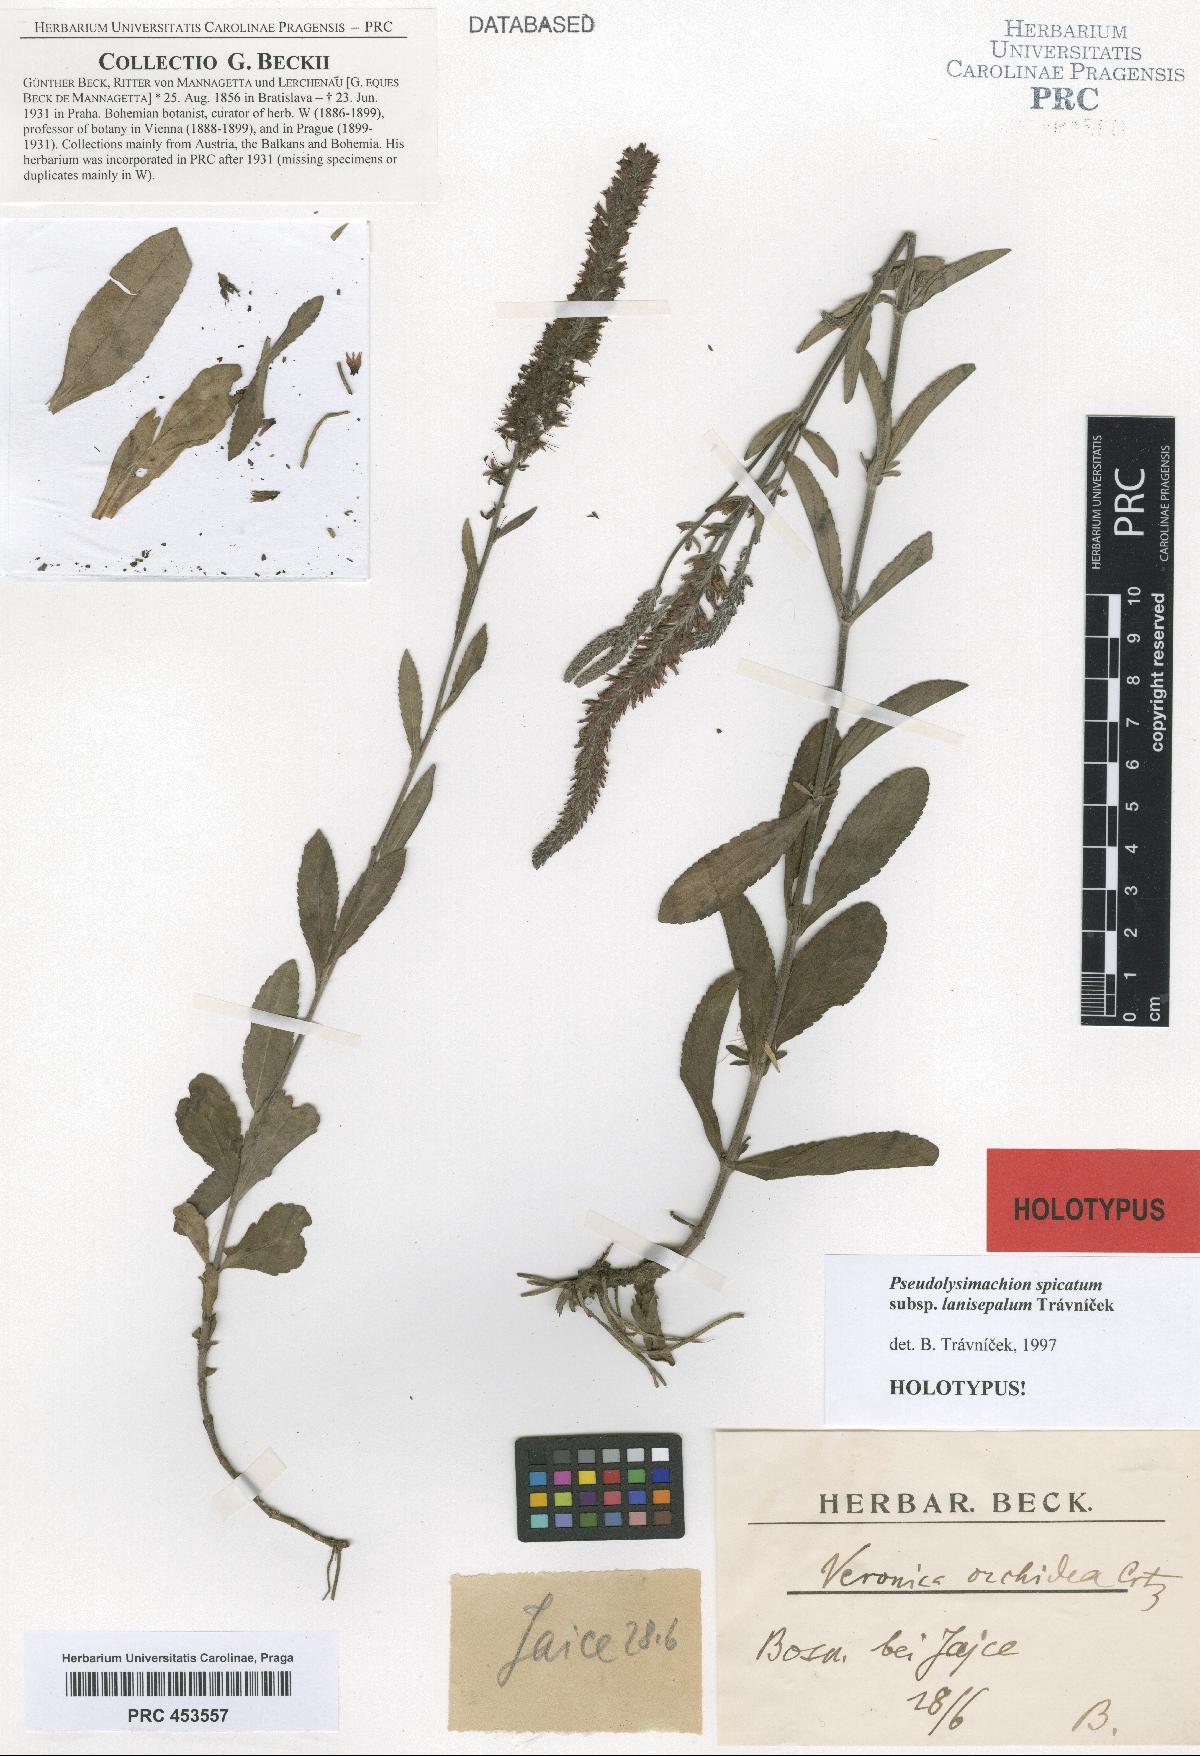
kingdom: Plantae
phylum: Tracheophyta
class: Magnoliopsida
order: Lamiales
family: Plantaginaceae
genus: Veronica
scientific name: Veronica spicata
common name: Spiked speedwell
